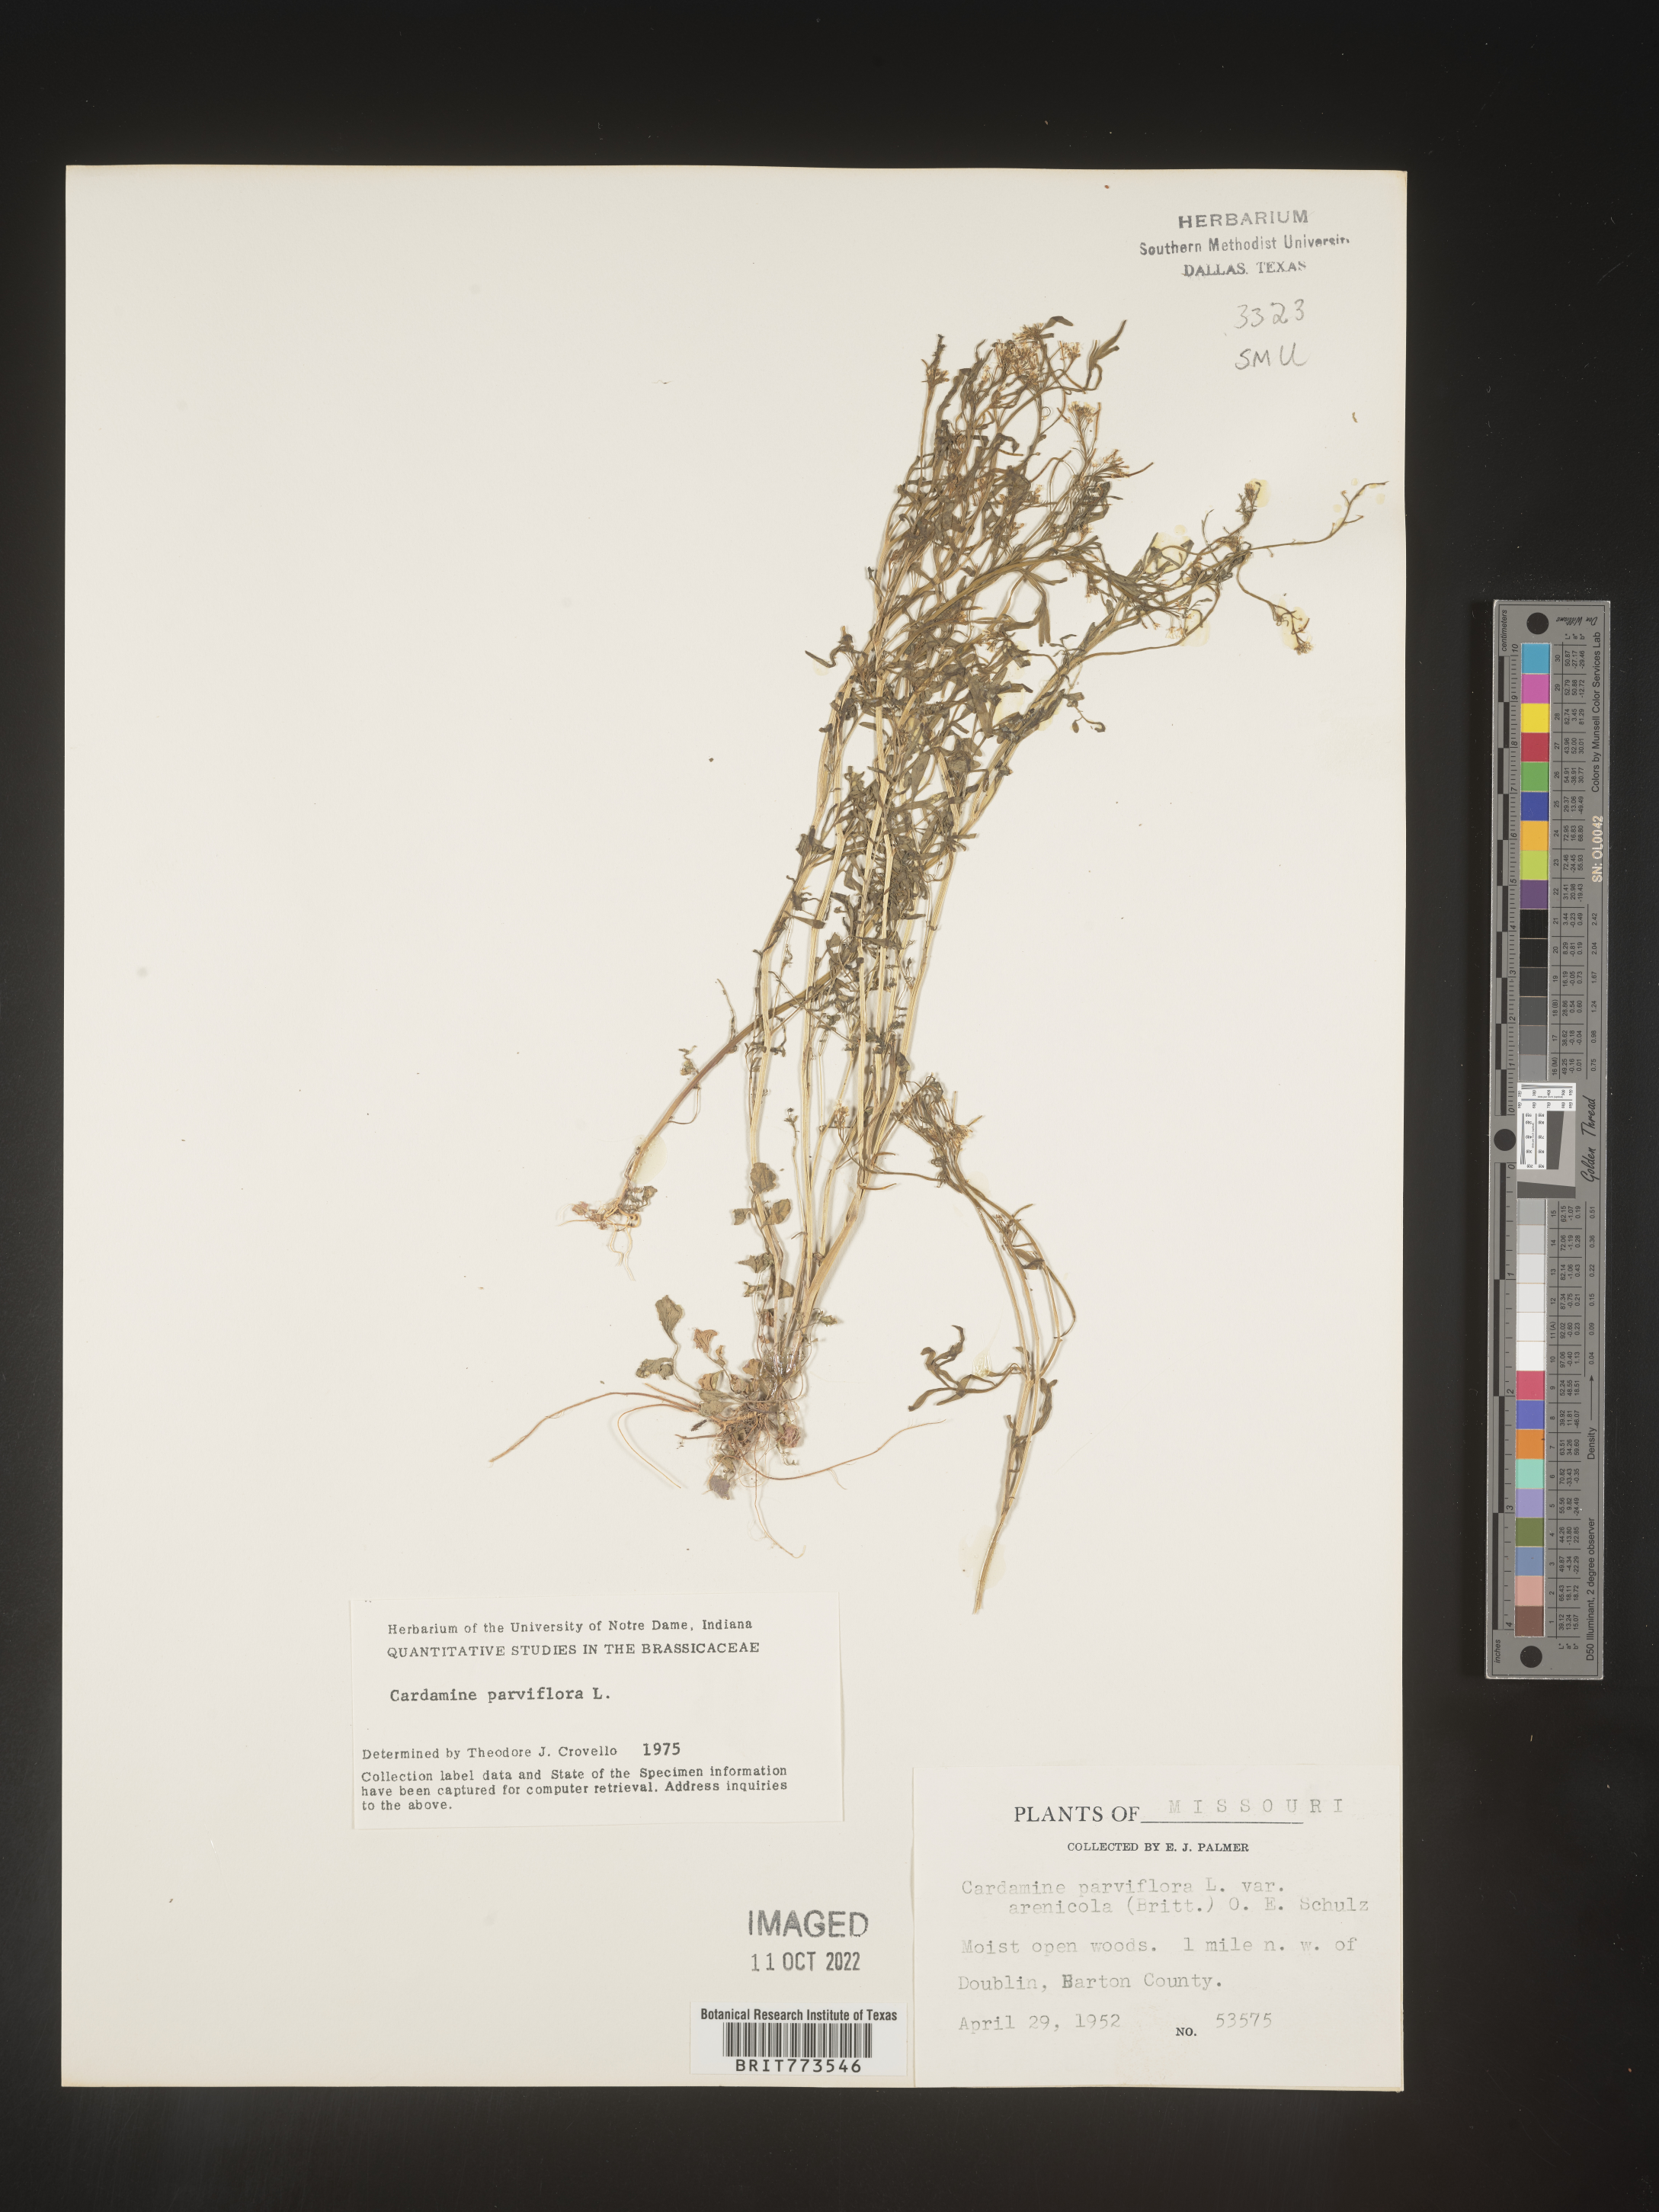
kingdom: Plantae
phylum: Tracheophyta
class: Magnoliopsida
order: Brassicales
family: Brassicaceae
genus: Cardamine
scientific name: Cardamine parviflora
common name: Sand bittercress
